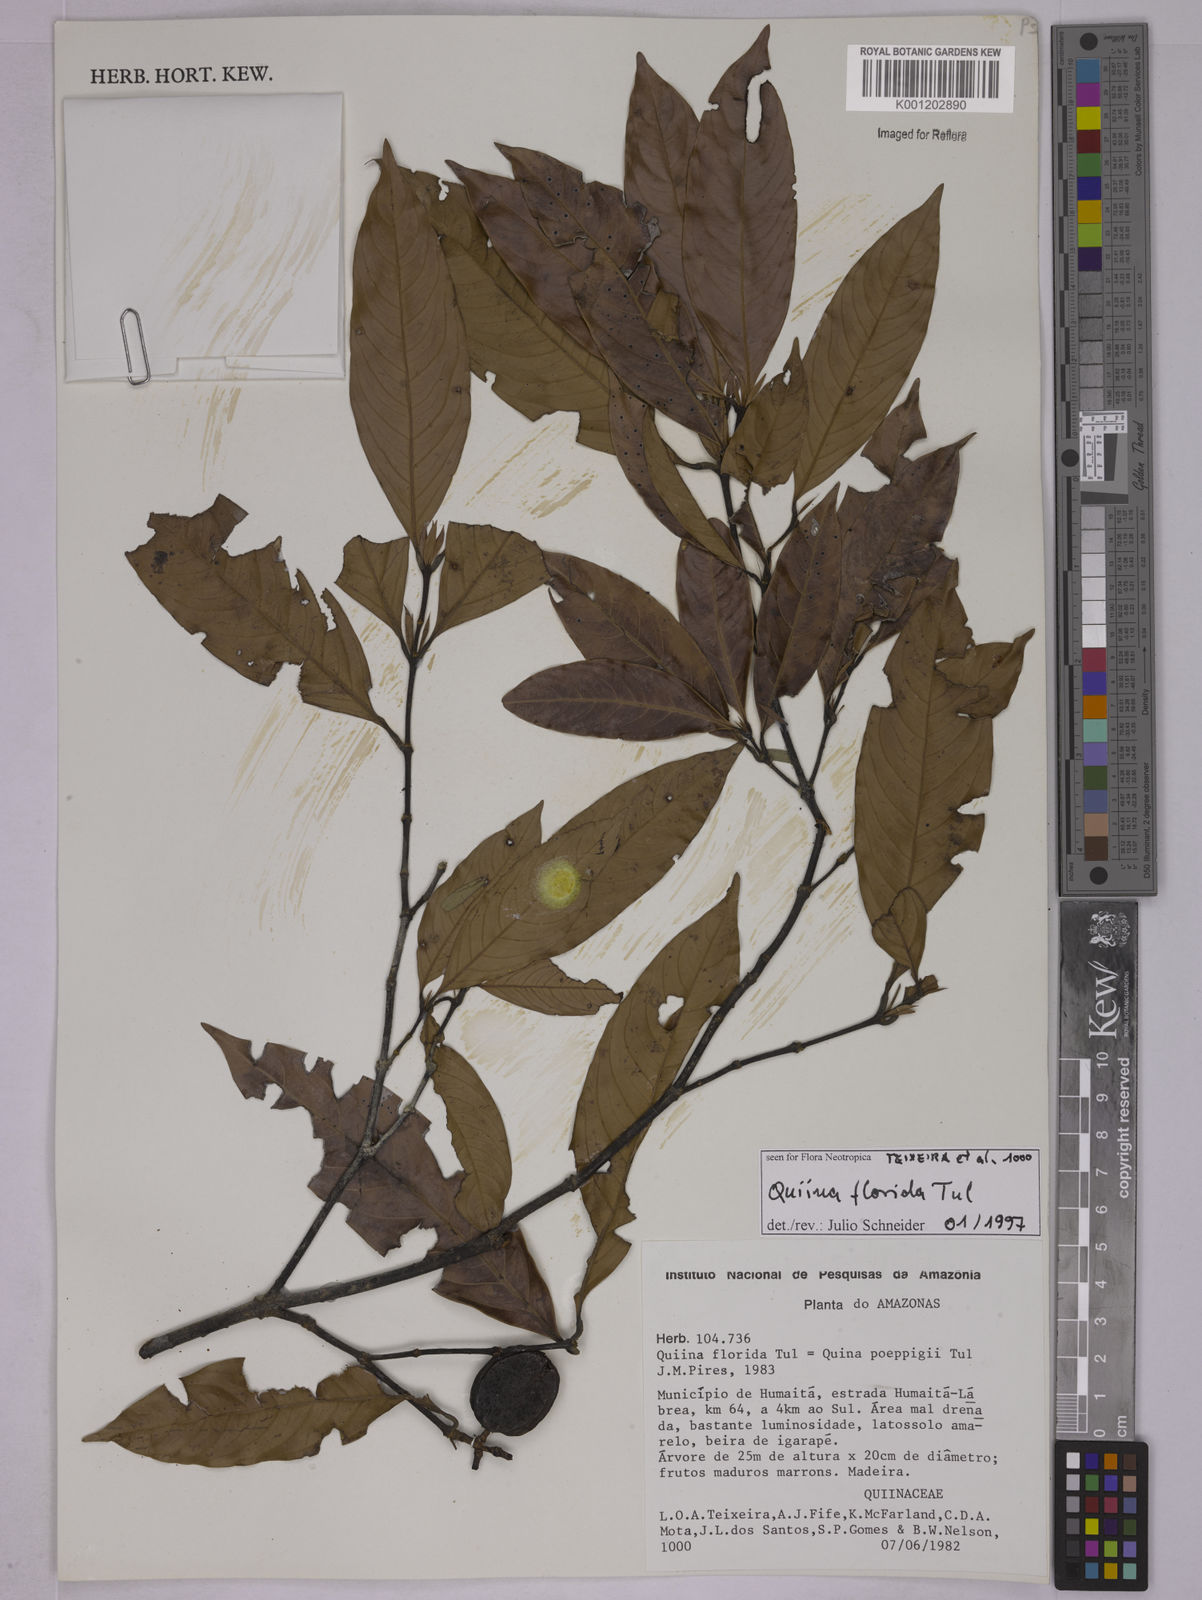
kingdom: Plantae
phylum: Tracheophyta
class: Magnoliopsida
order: Malpighiales
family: Quiinaceae
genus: Quiina
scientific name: Quiina florida
